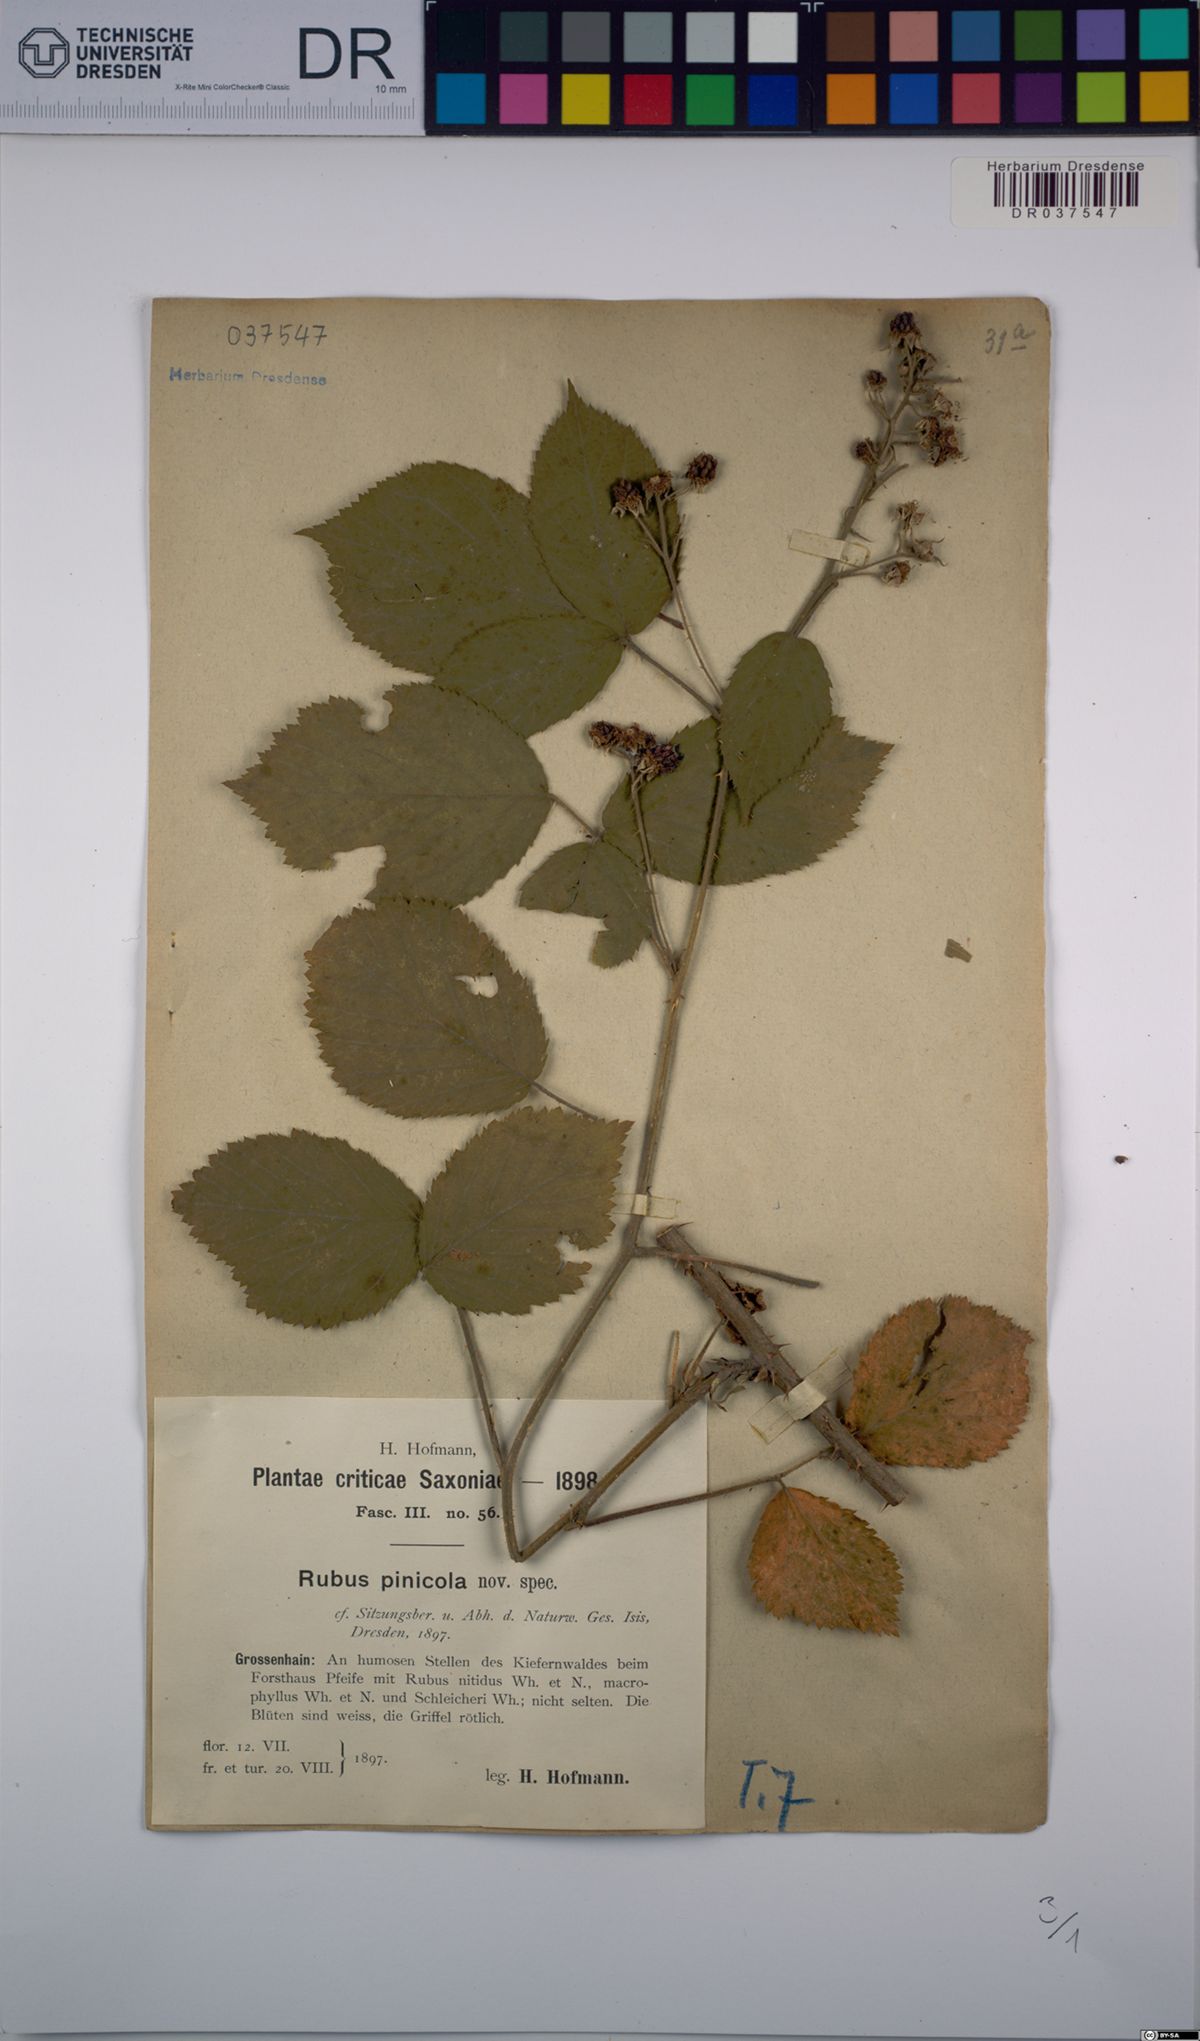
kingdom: Plantae
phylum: Tracheophyta
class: Magnoliopsida
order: Rosales
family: Rosaceae
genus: Rubus
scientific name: Rubus pinicola
